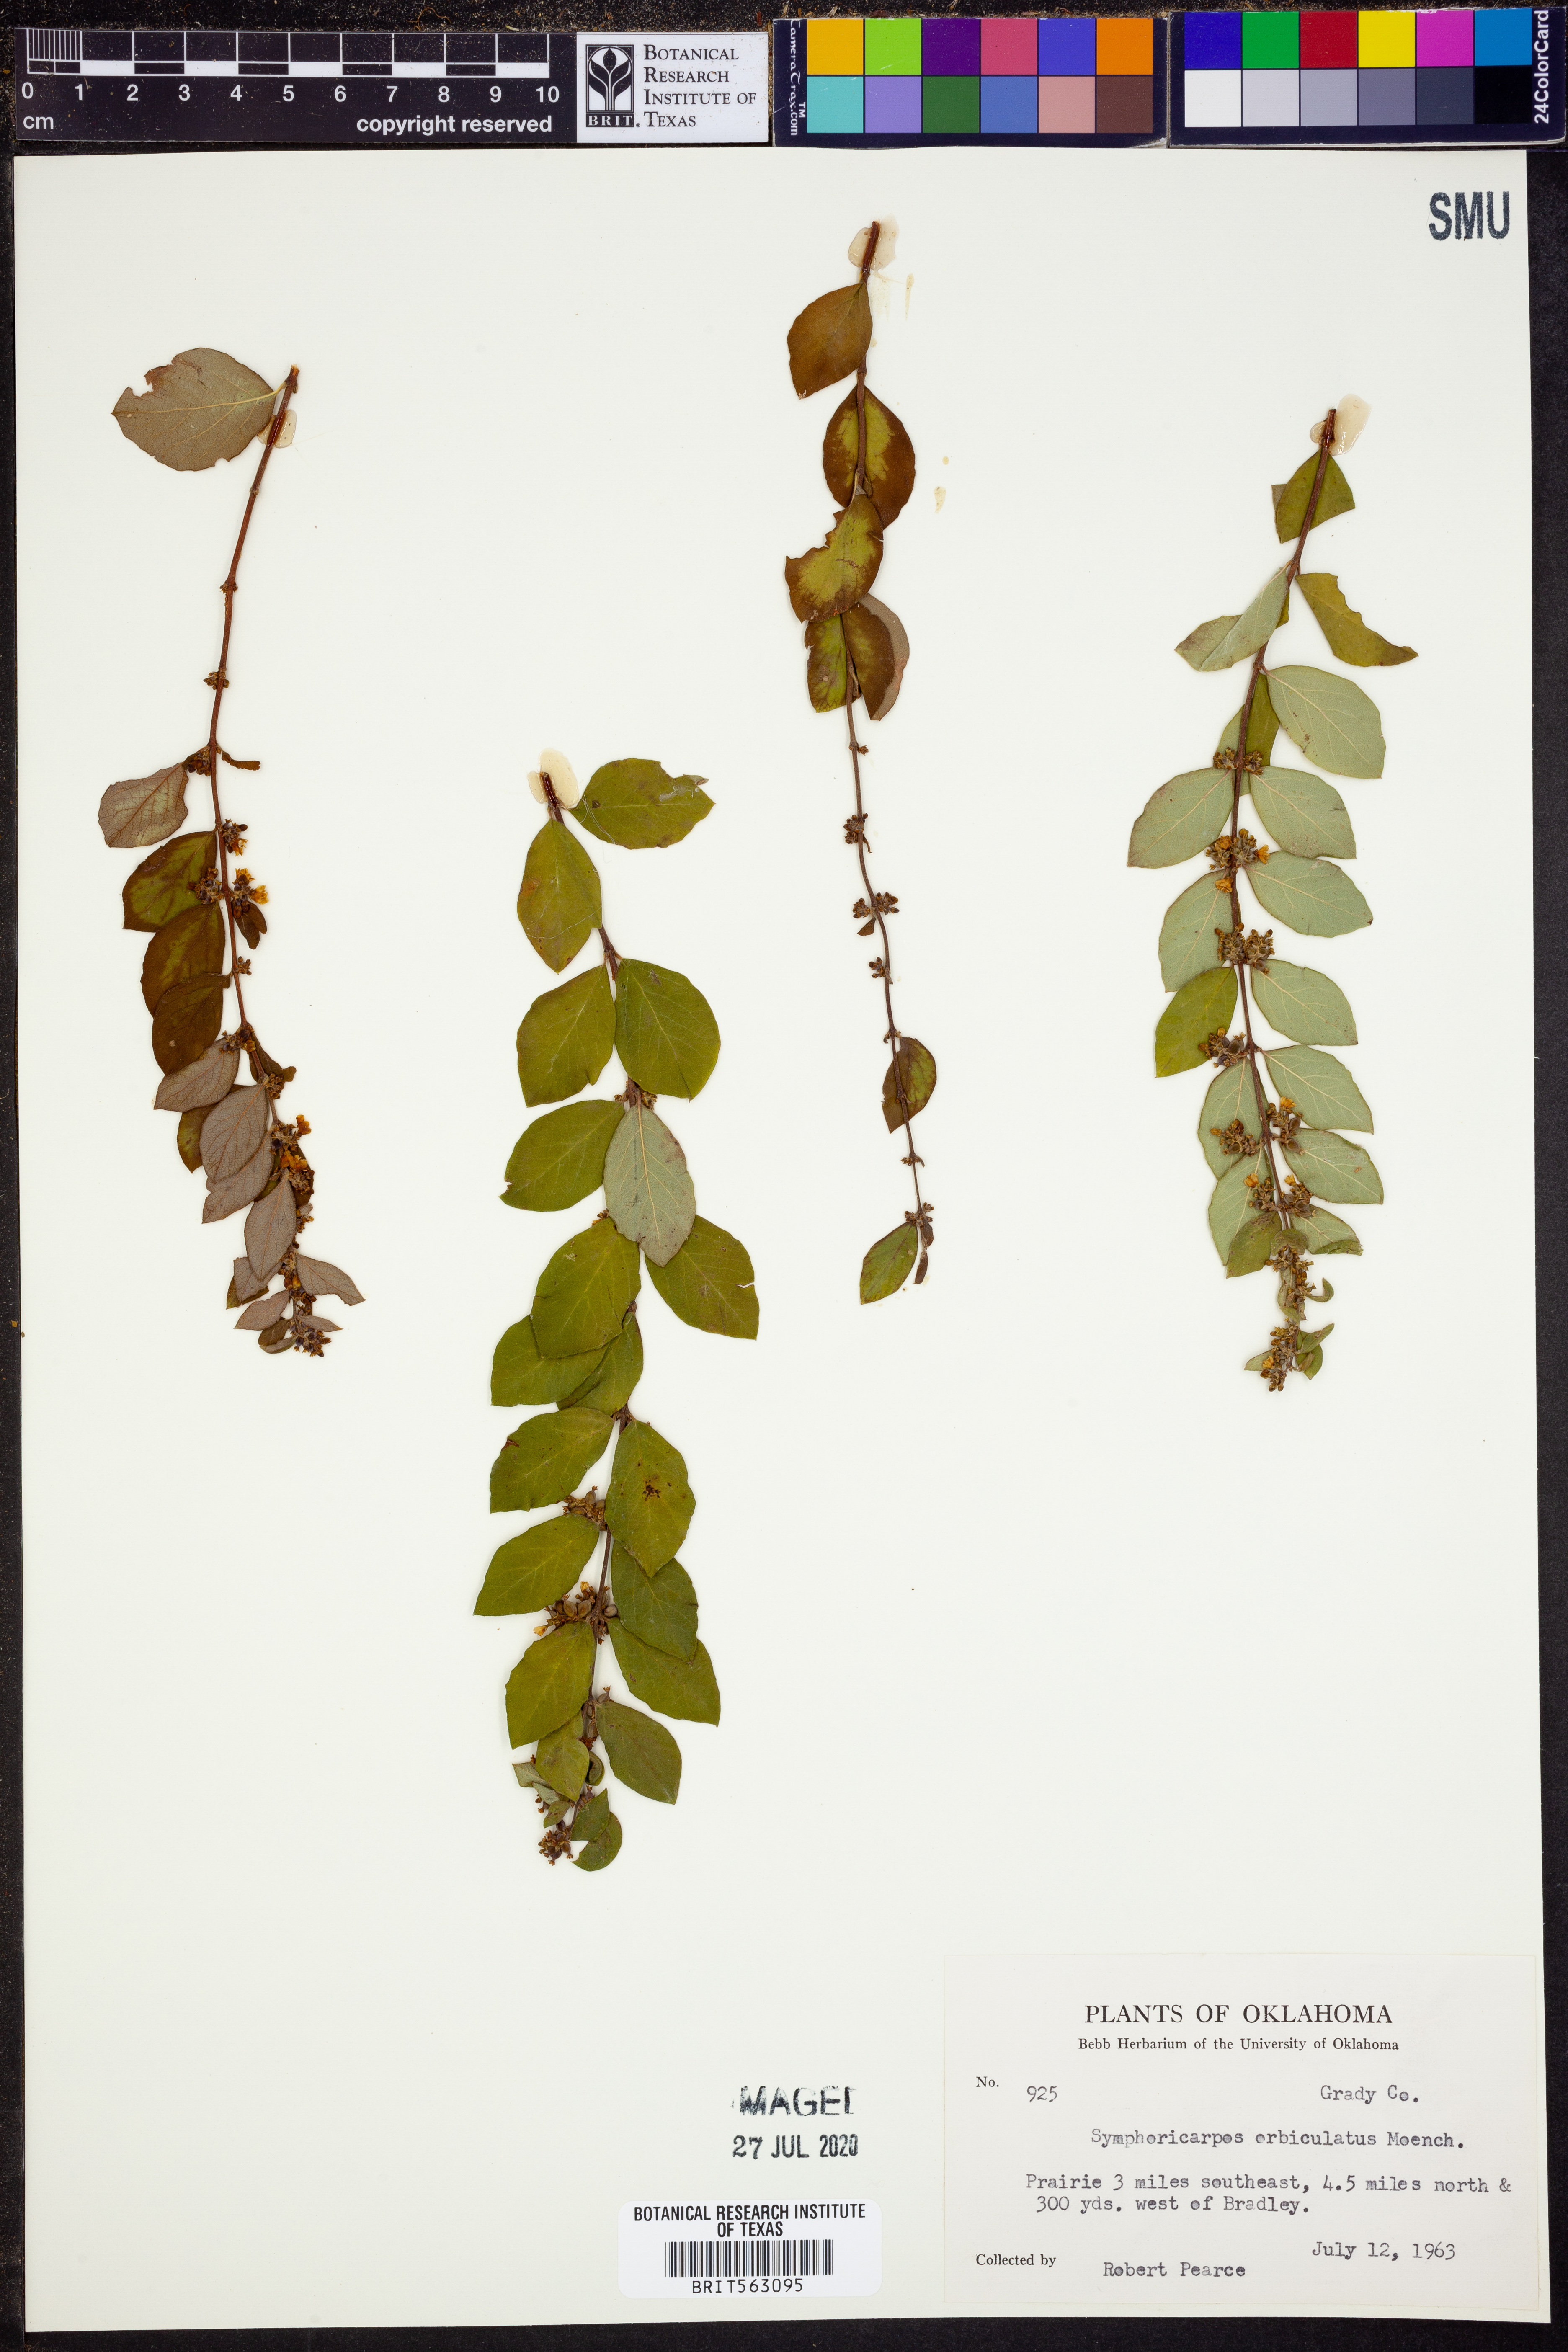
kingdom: Plantae
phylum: Tracheophyta
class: Magnoliopsida
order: Dipsacales
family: Caprifoliaceae
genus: Symphoricarpos
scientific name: Symphoricarpos orbiculatus
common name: Coralberry
